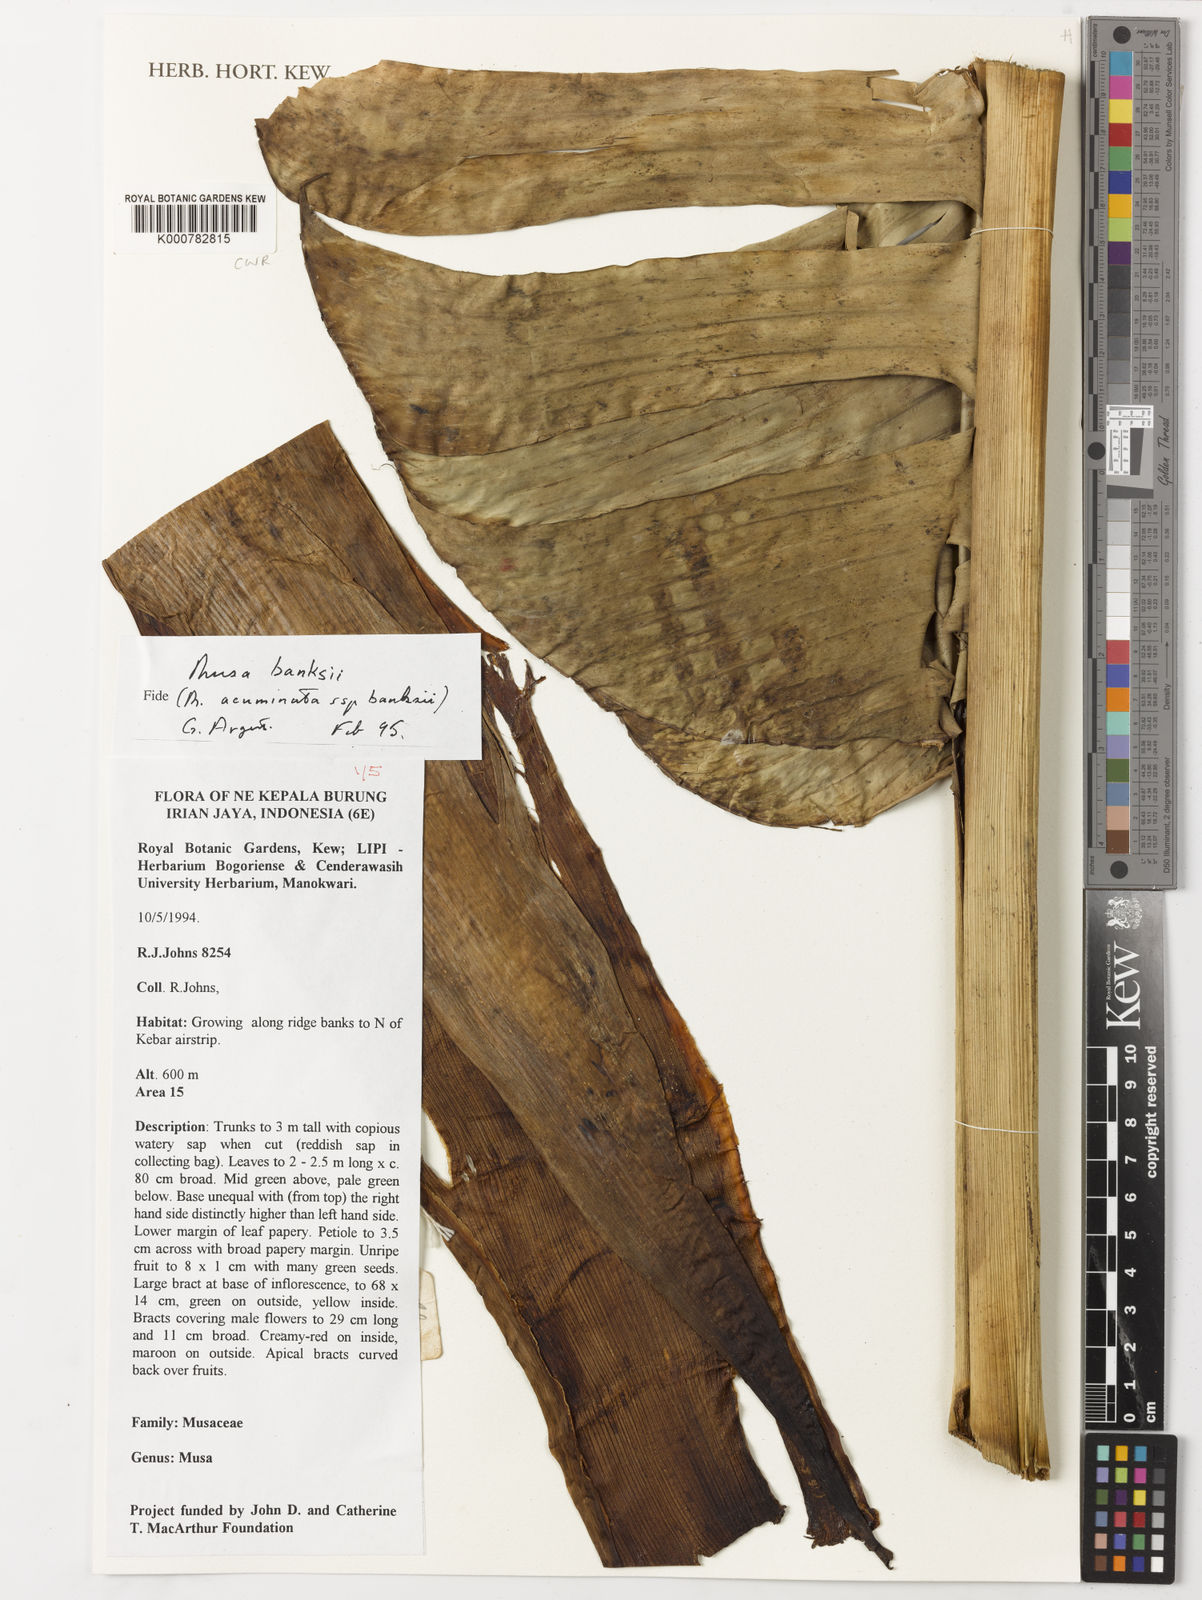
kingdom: Plantae
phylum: Tracheophyta
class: Liliopsida
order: Zingiberales
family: Musaceae
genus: Musa
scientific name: Musa banksii
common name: Maroon-stemmed banana
